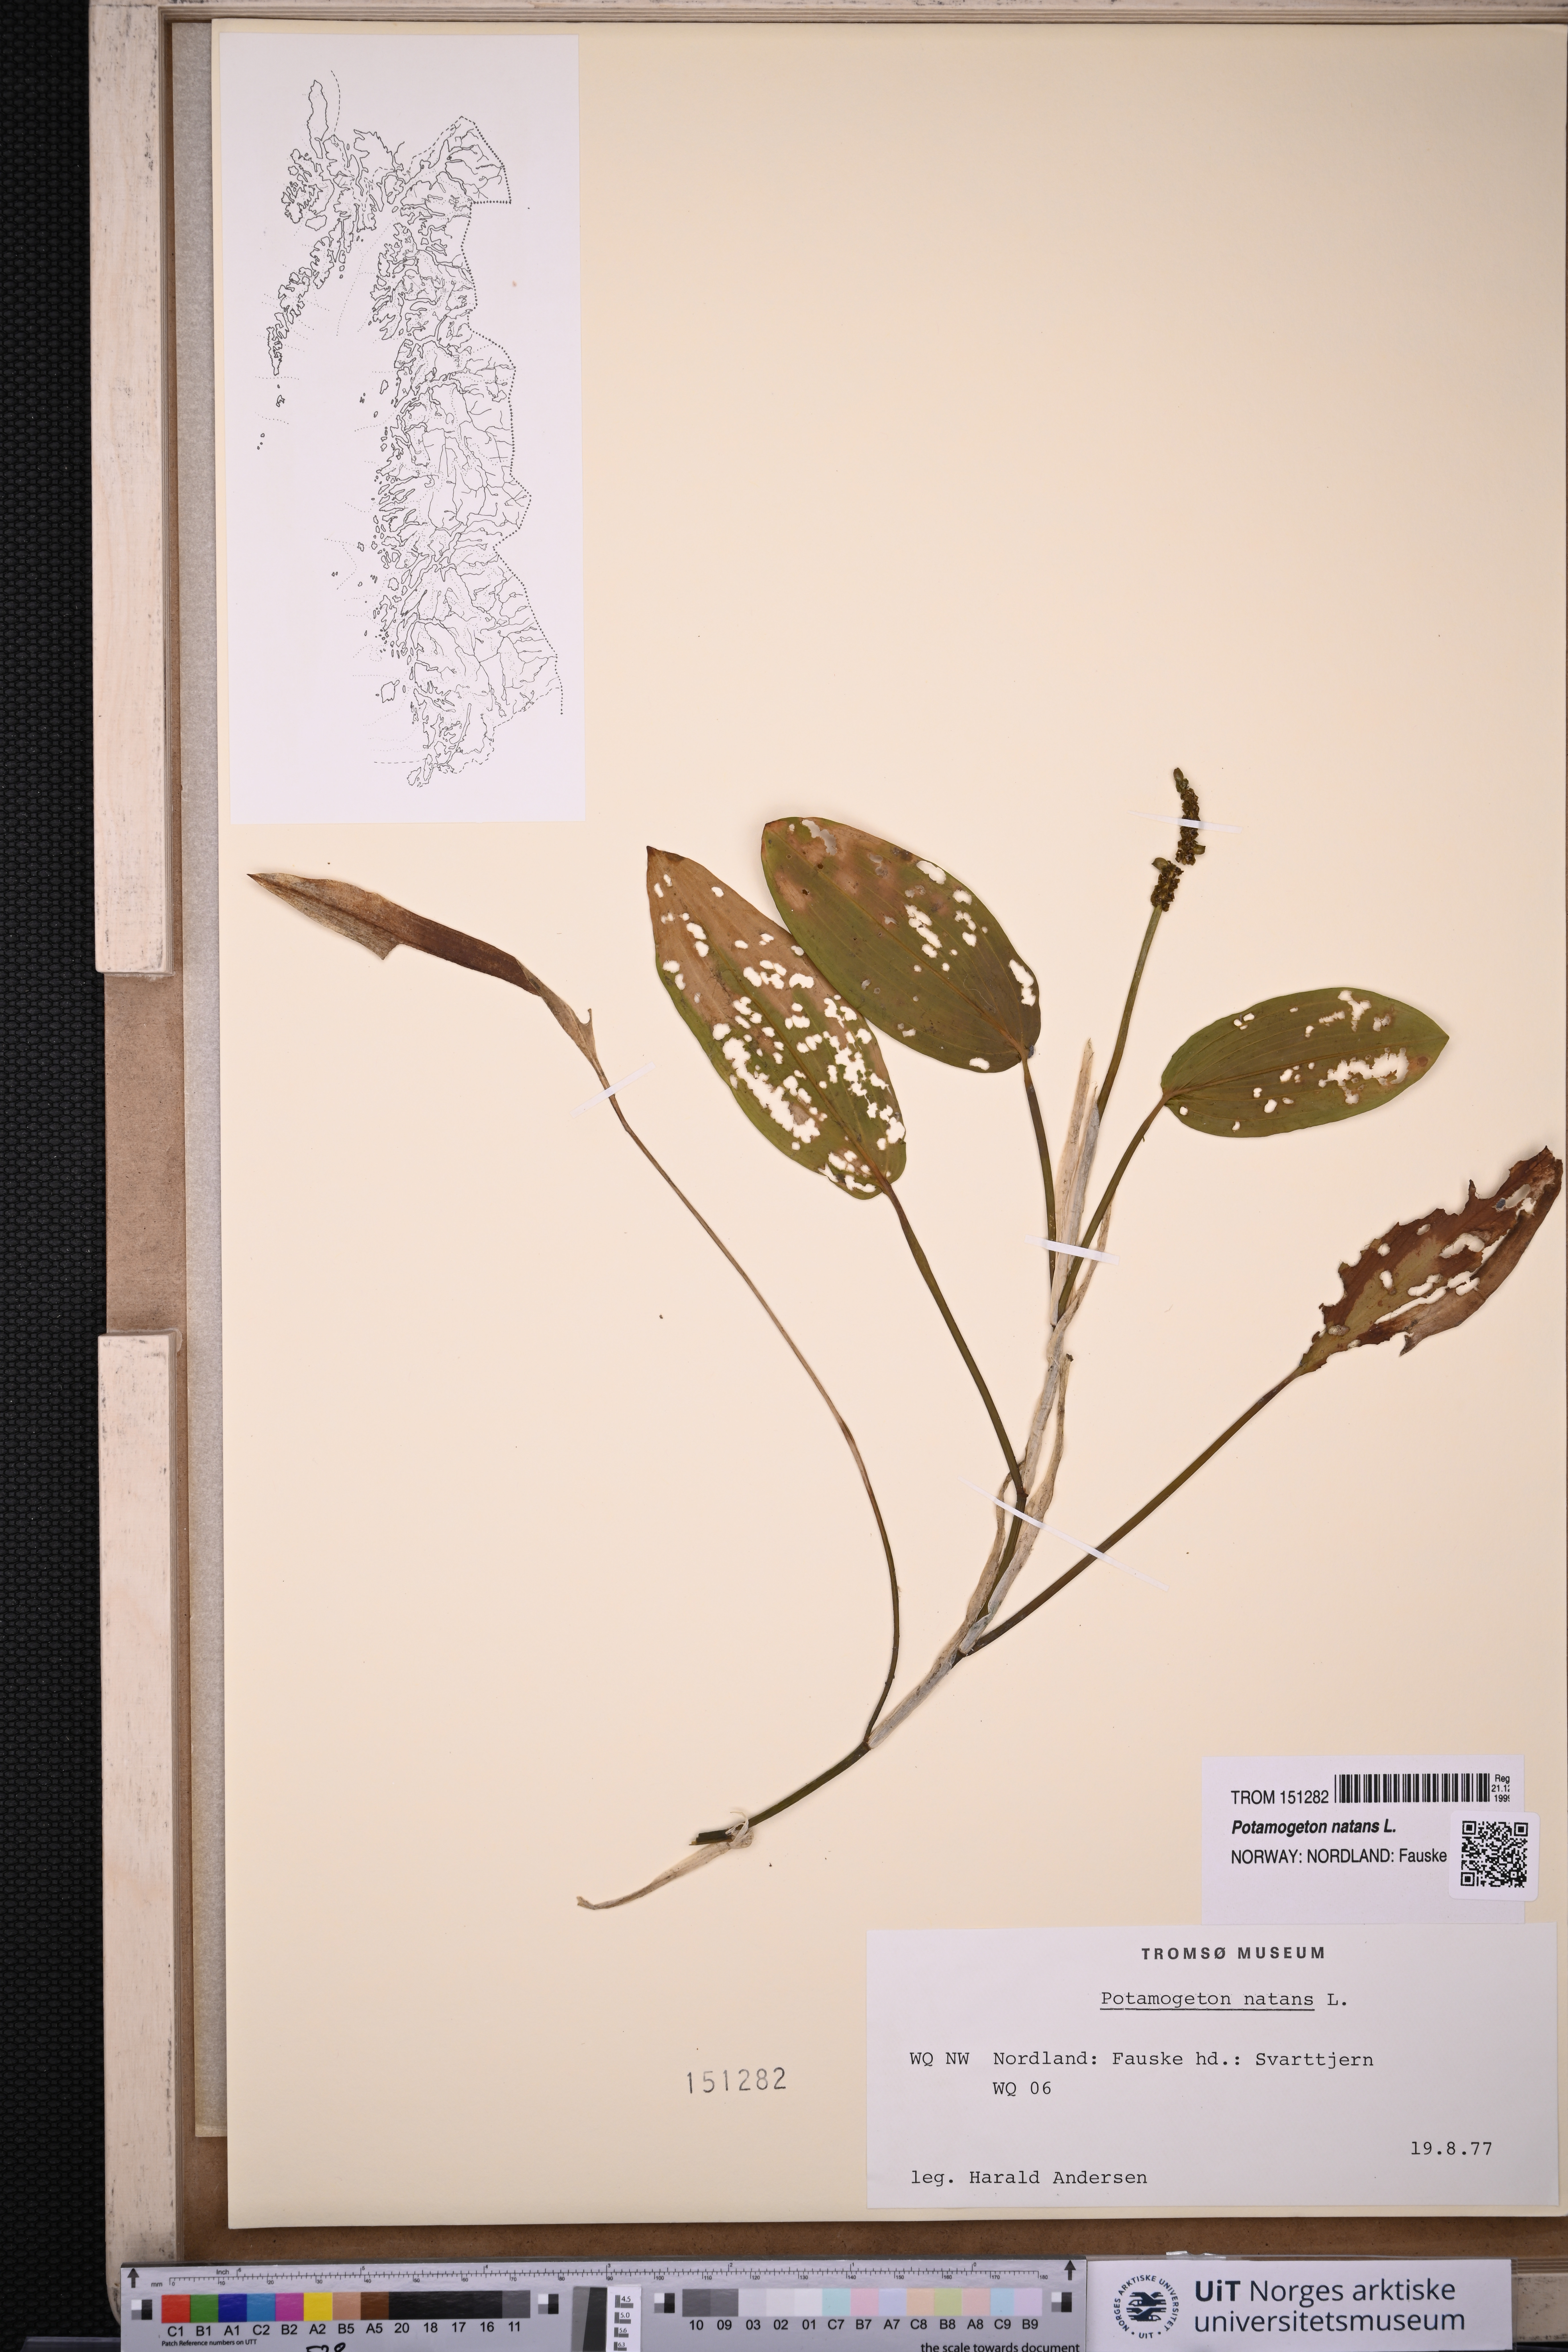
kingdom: Plantae
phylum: Tracheophyta
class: Liliopsida
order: Alismatales
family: Potamogetonaceae
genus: Potamogeton
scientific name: Potamogeton natans
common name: Broad-leaved pondweed
